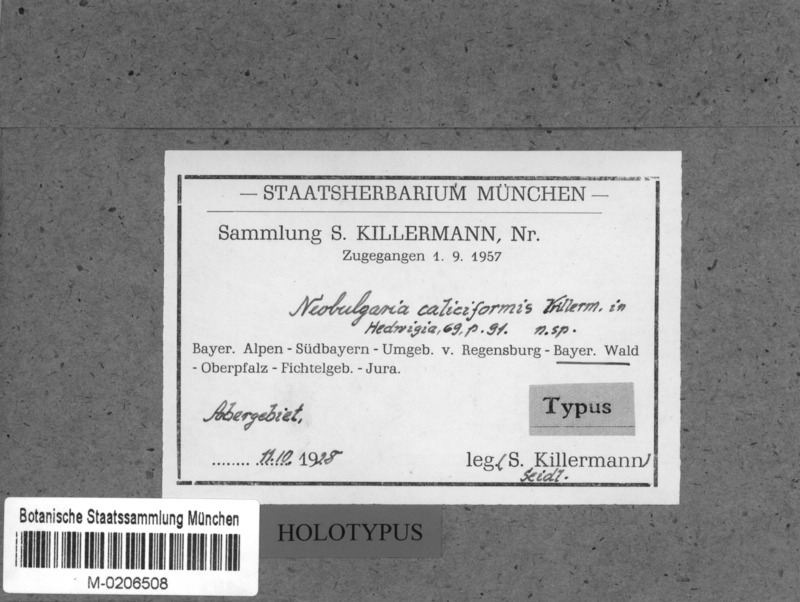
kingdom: Fungi
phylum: Ascomycota
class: Leotiomycetes
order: Helotiales
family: Gelatinodiscaceae
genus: Neobulgaria
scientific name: Neobulgaria caliciformis
